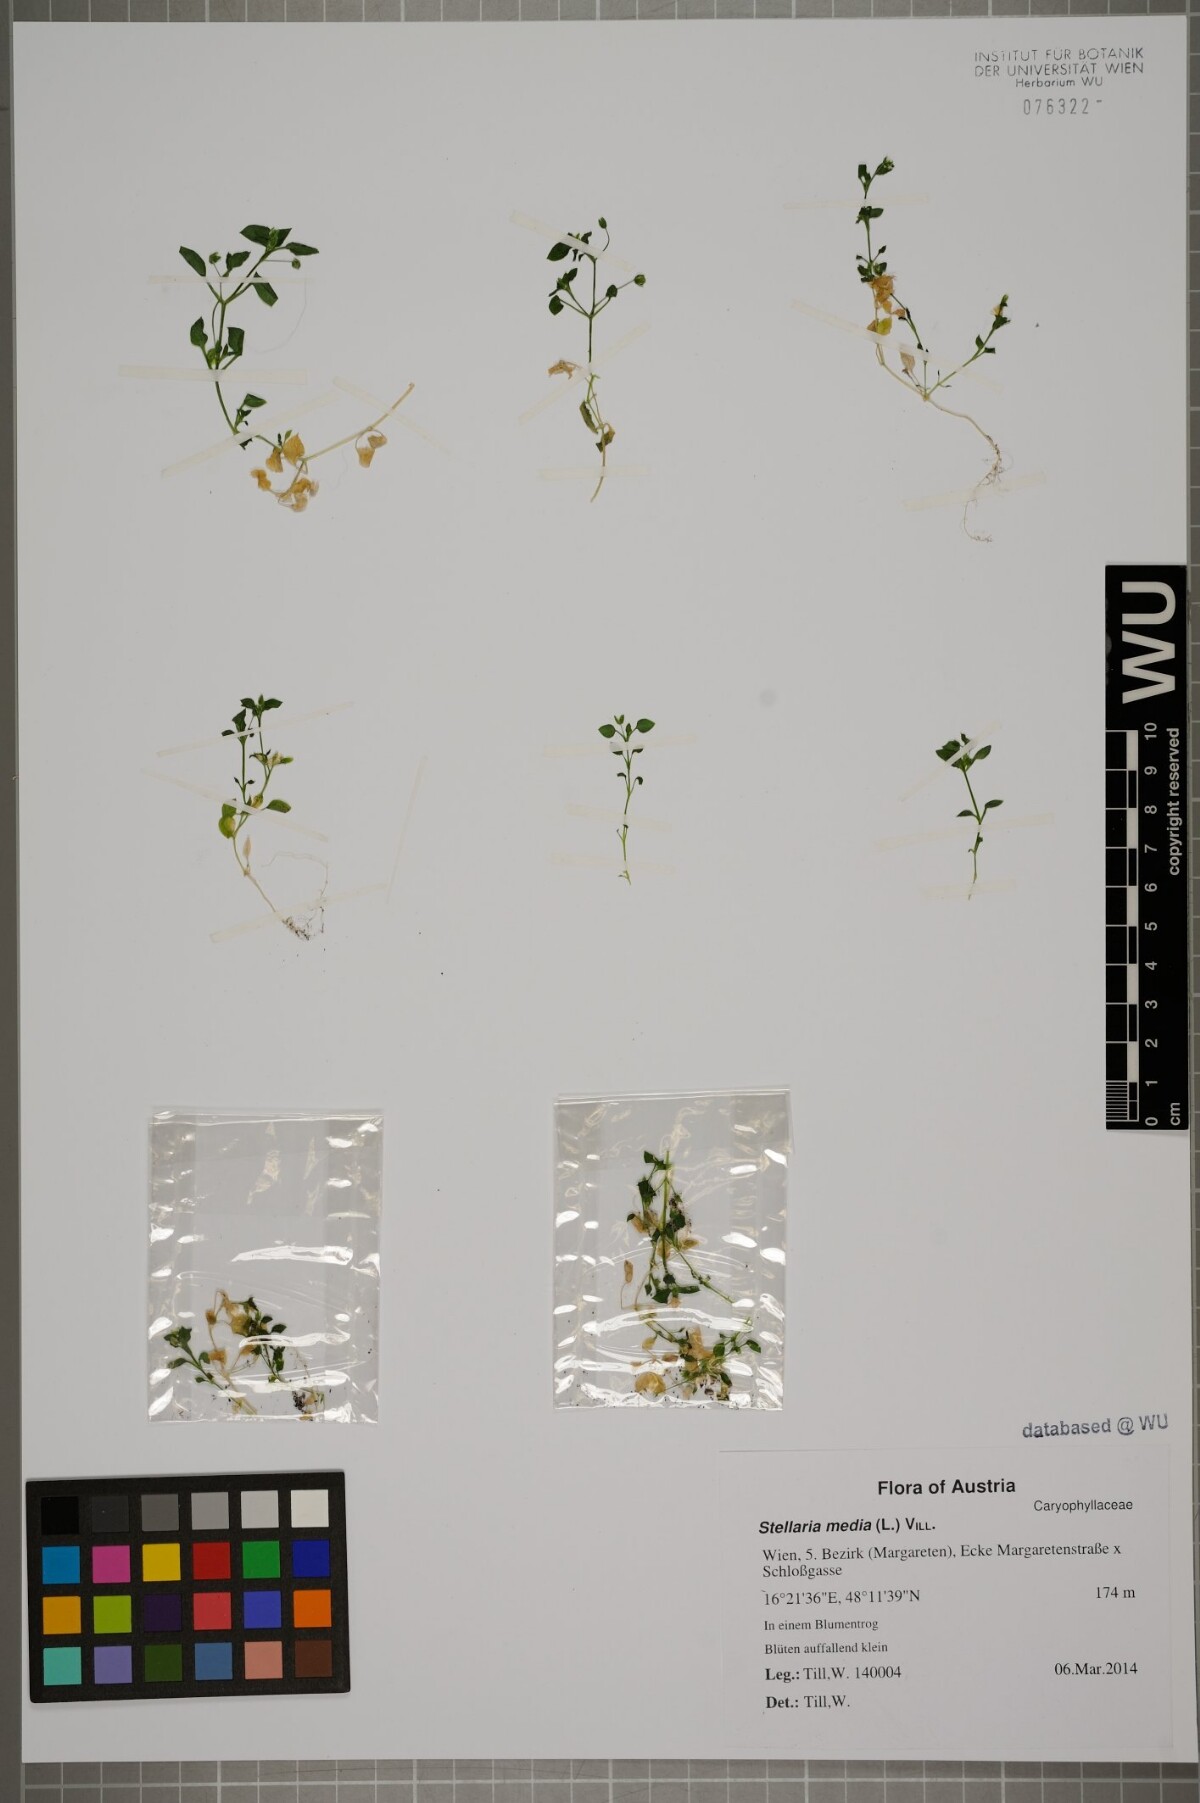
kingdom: Plantae
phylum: Tracheophyta
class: Magnoliopsida
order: Caryophyllales
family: Caryophyllaceae
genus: Stellaria
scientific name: Stellaria media
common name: Common chickweed
